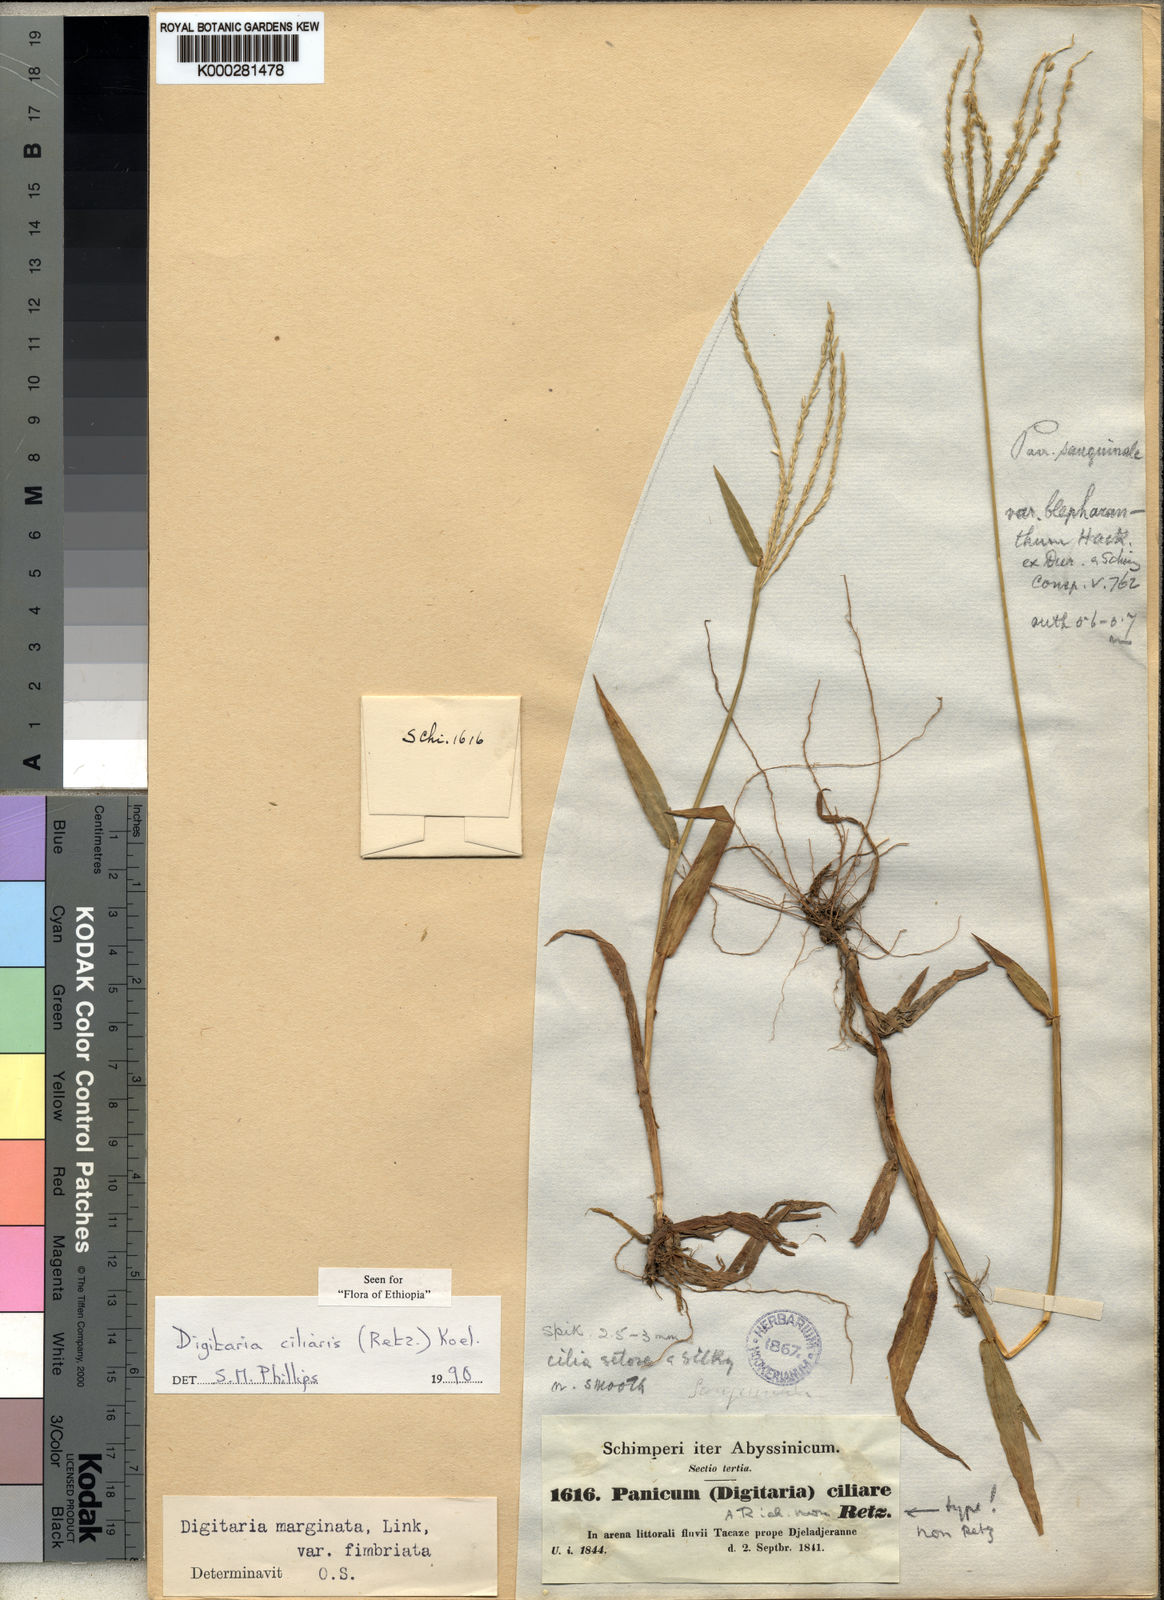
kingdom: Plantae
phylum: Tracheophyta
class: Liliopsida
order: Poales
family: Poaceae
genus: Digitaria
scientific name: Digitaria ciliaris
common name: Tropical finger-grass
